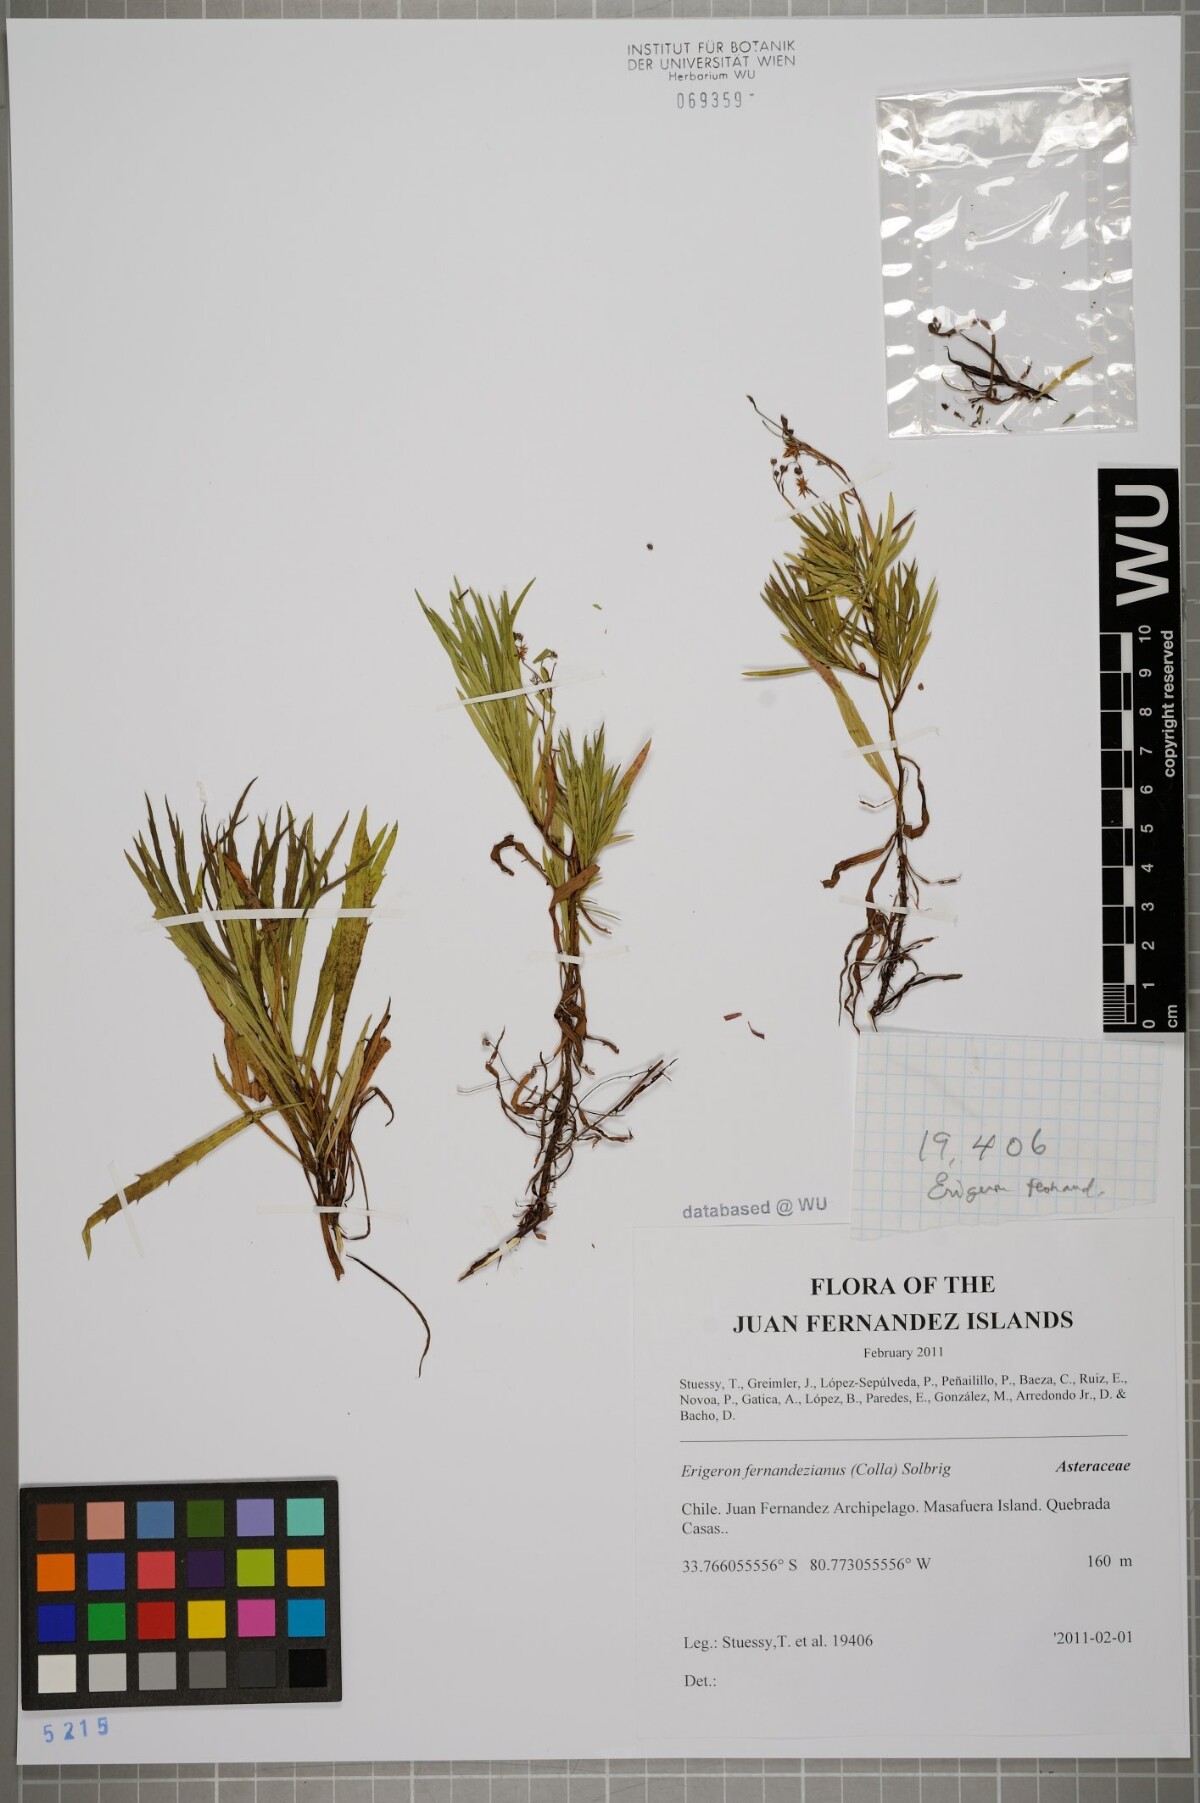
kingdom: Plantae
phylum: Tracheophyta
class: Magnoliopsida
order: Asterales
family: Asteraceae
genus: Erigeron
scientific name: Erigeron fernandezianus
